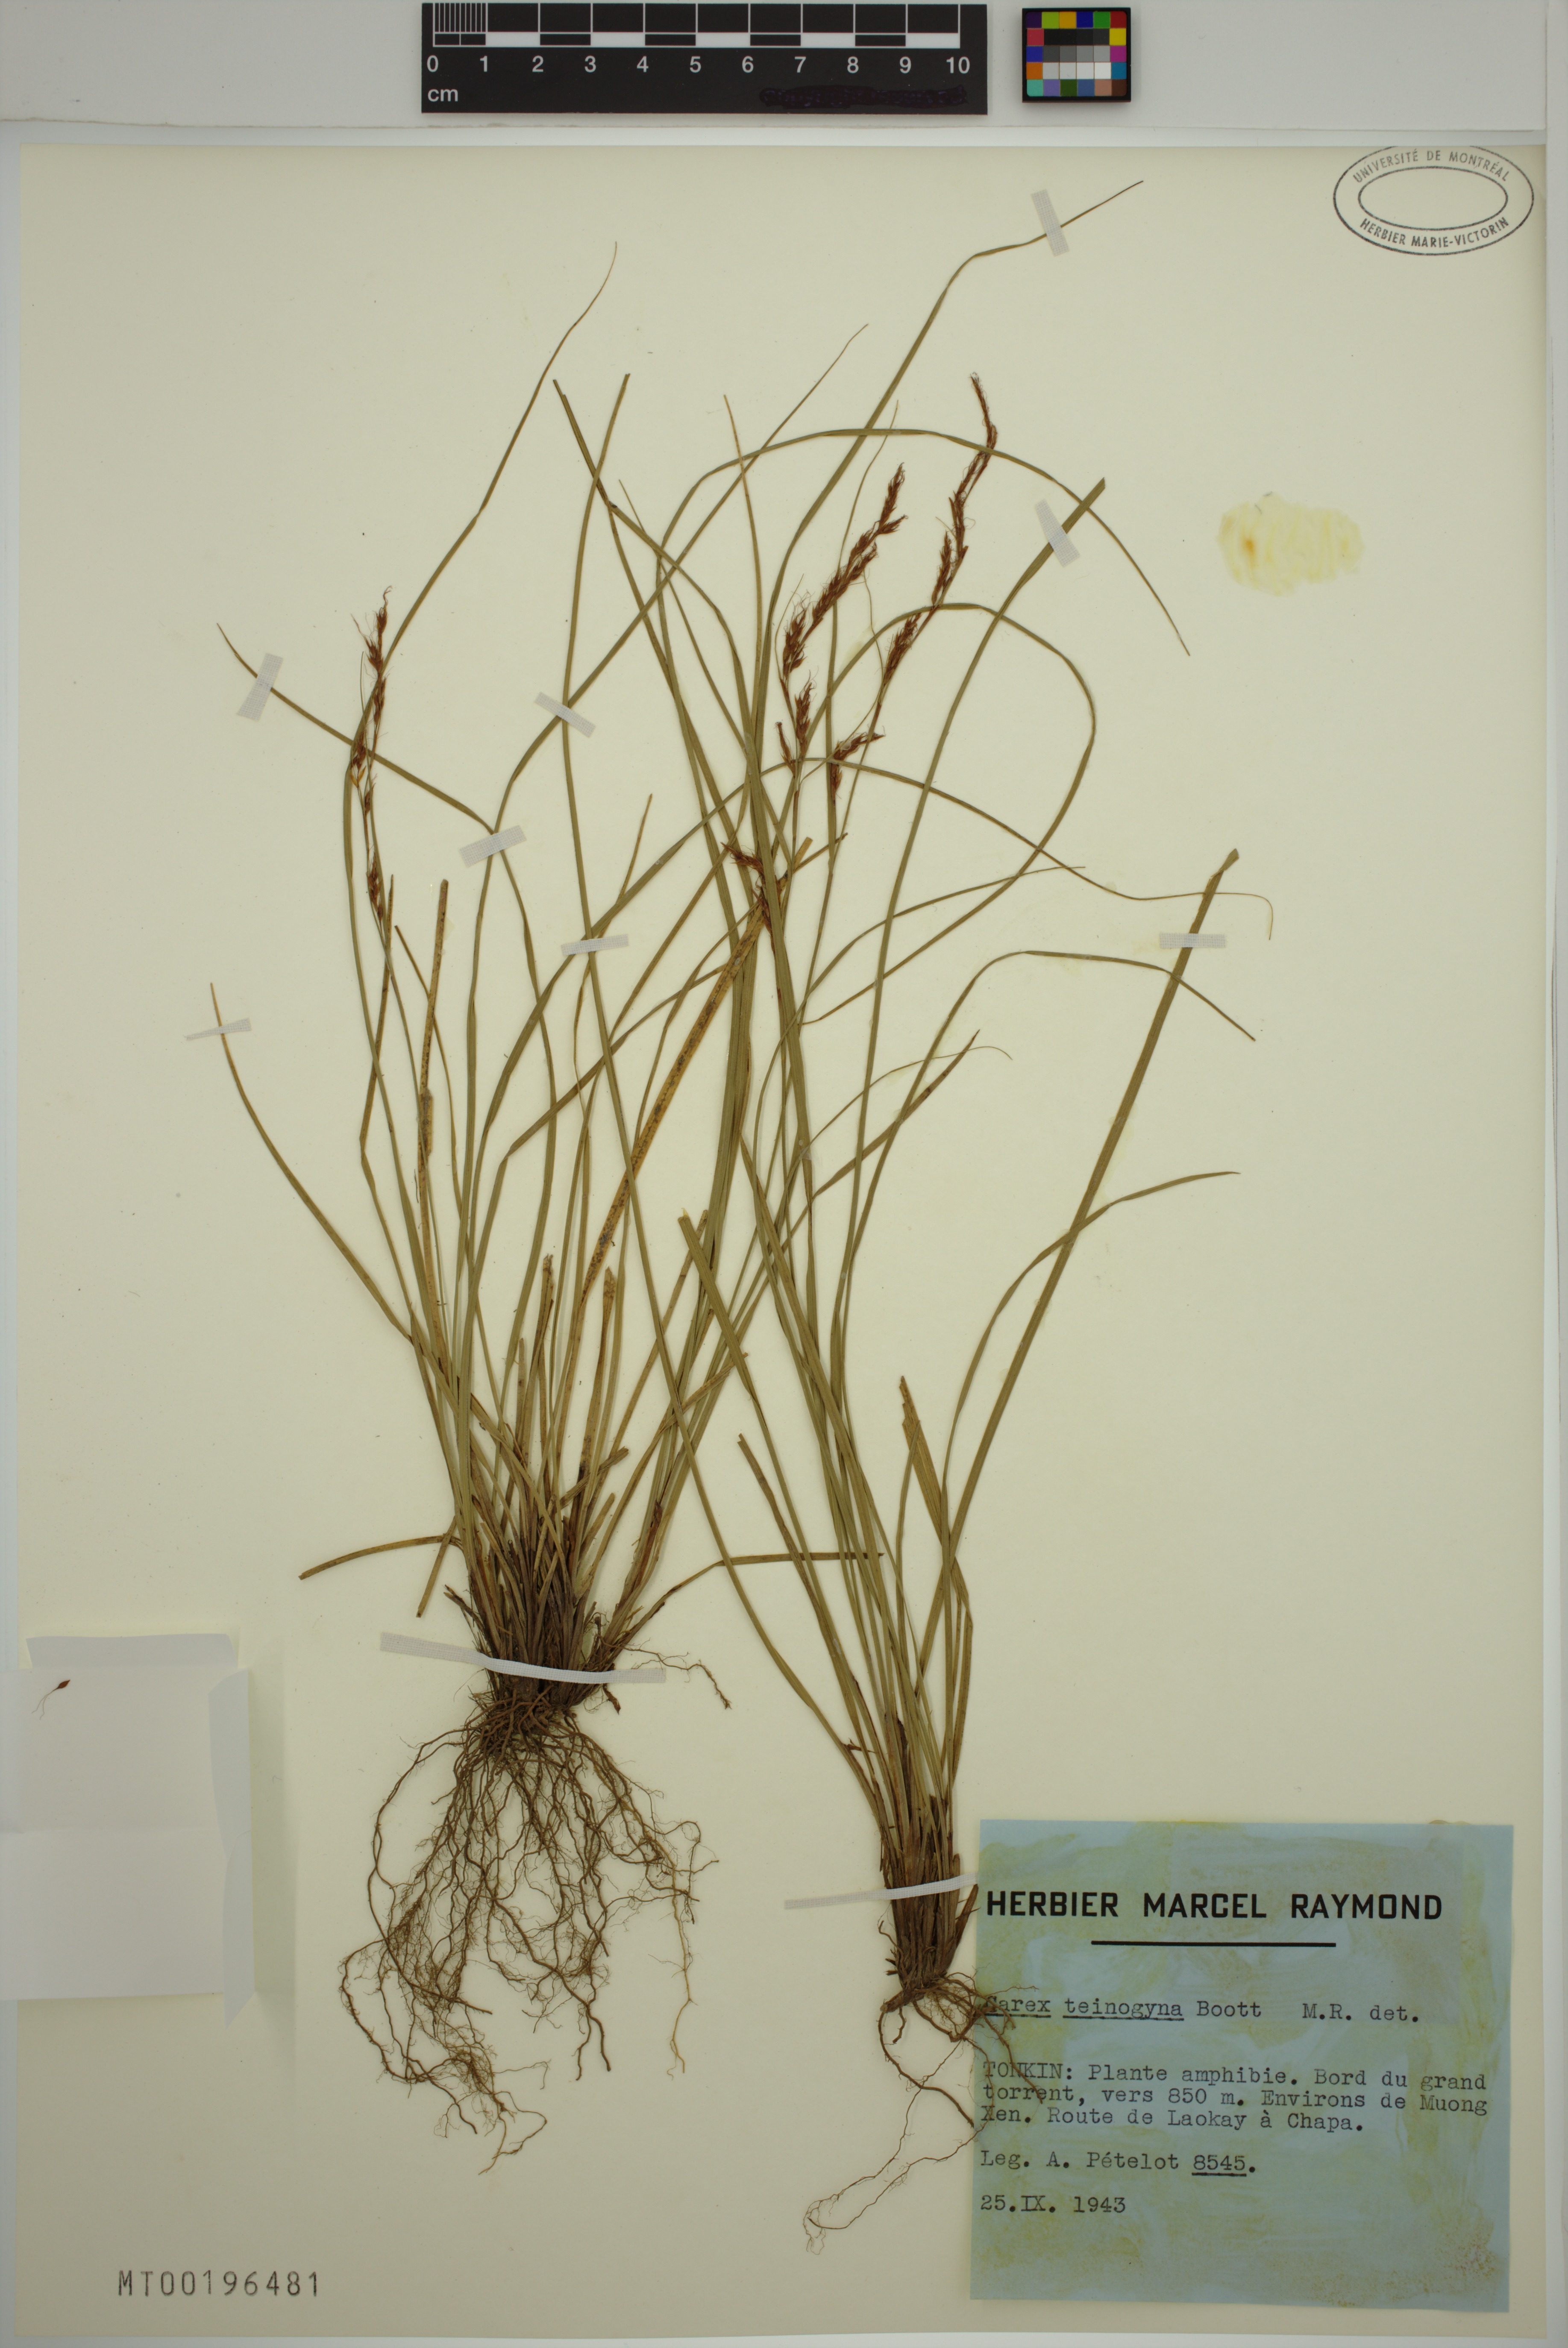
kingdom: Plantae
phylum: Tracheophyta
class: Liliopsida
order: Poales
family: Cyperaceae
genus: Carex
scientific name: Carex teinogyna
